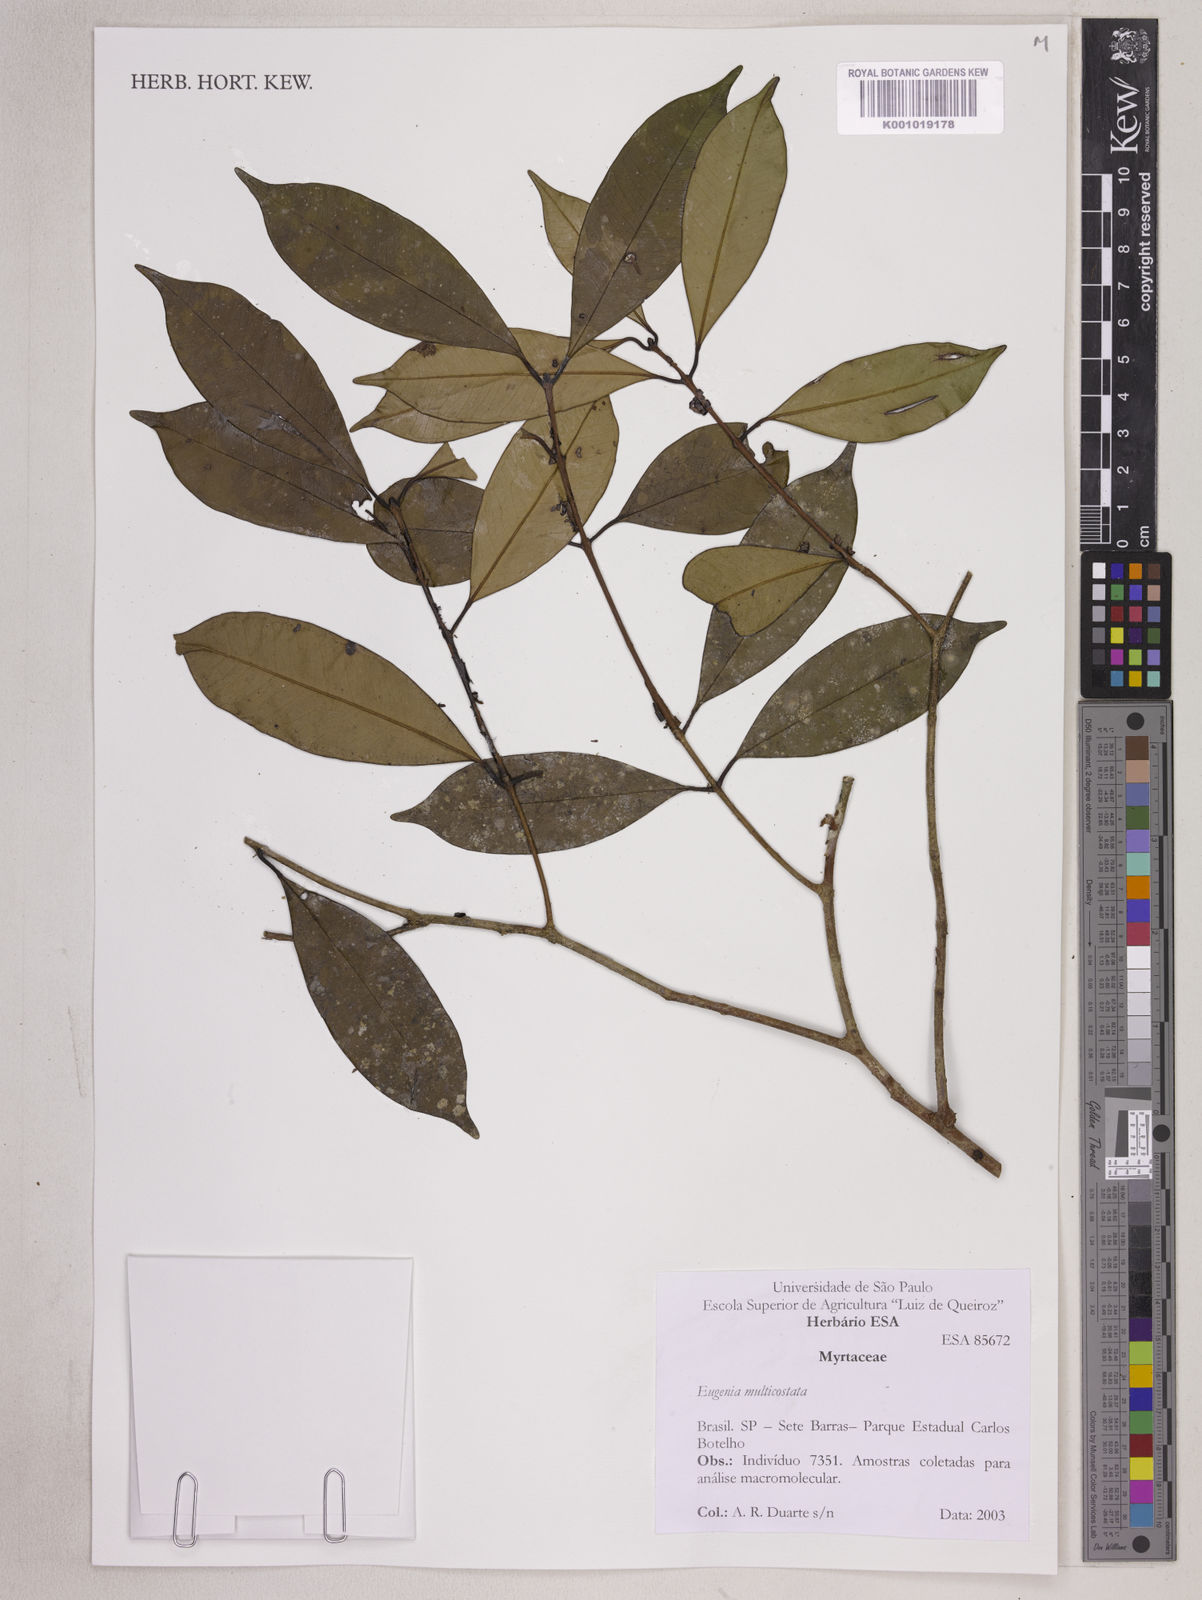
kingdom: Plantae
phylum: Tracheophyta
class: Magnoliopsida
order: Myrtales
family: Myrtaceae
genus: Eugenia
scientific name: Eugenia multicostata
